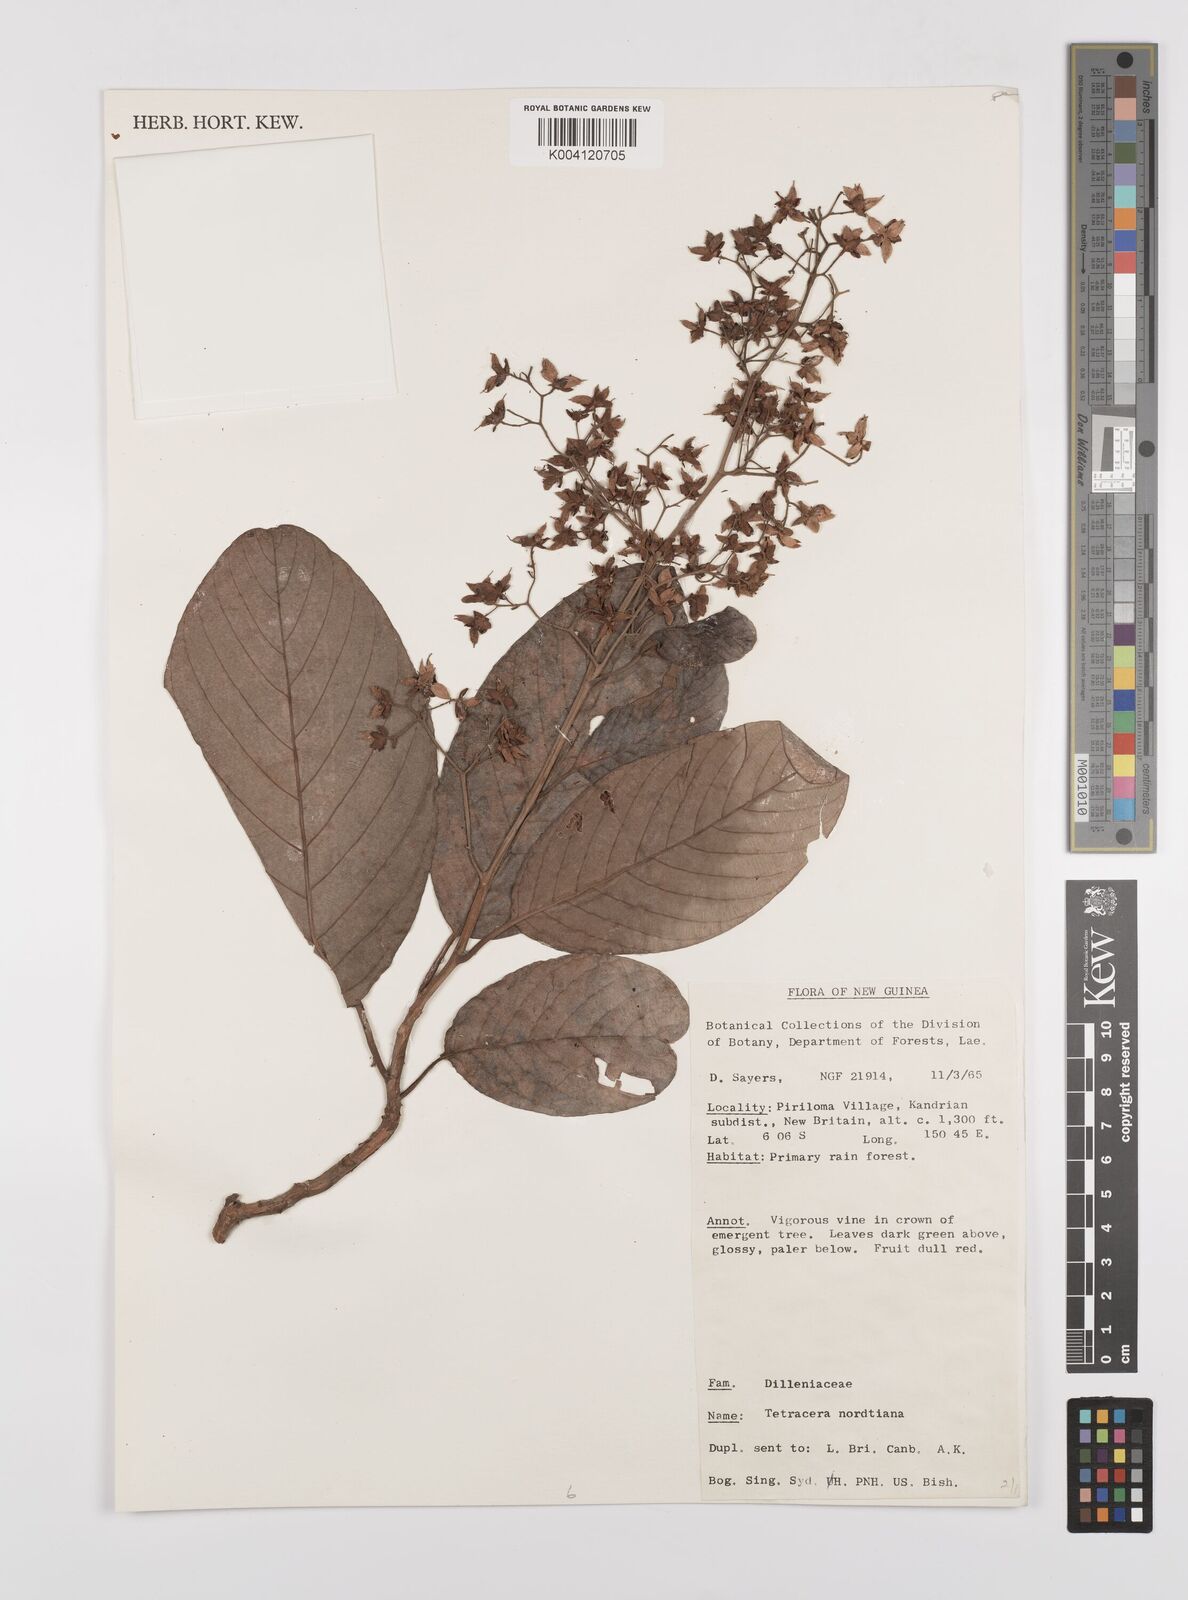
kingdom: Plantae
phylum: Tracheophyta
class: Magnoliopsida
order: Dilleniales
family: Dilleniaceae
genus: Tetracera
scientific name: Tetracera nordtiana
